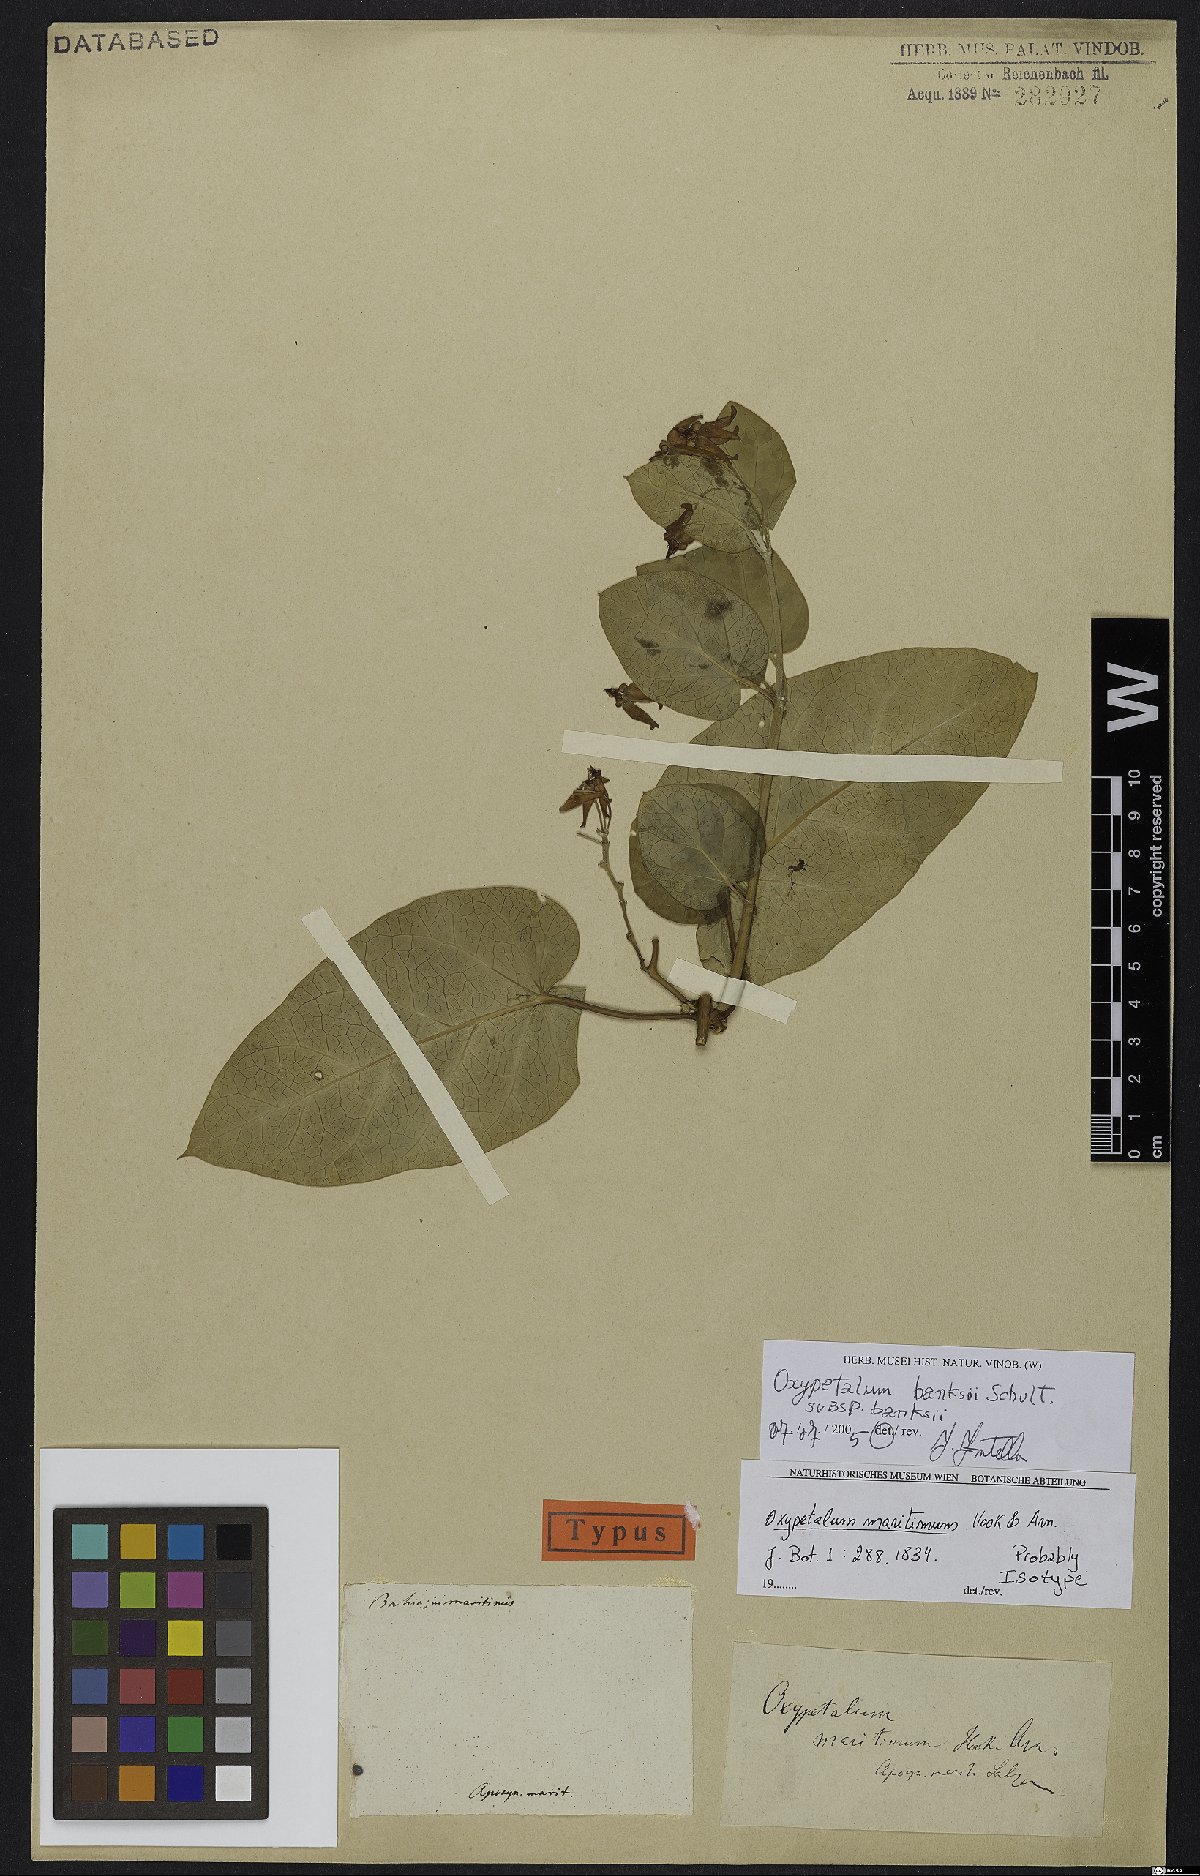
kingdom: Plantae
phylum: Tracheophyta
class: Magnoliopsida
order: Gentianales
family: Apocynaceae
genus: Oxypetalum
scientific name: Oxypetalum banksii
